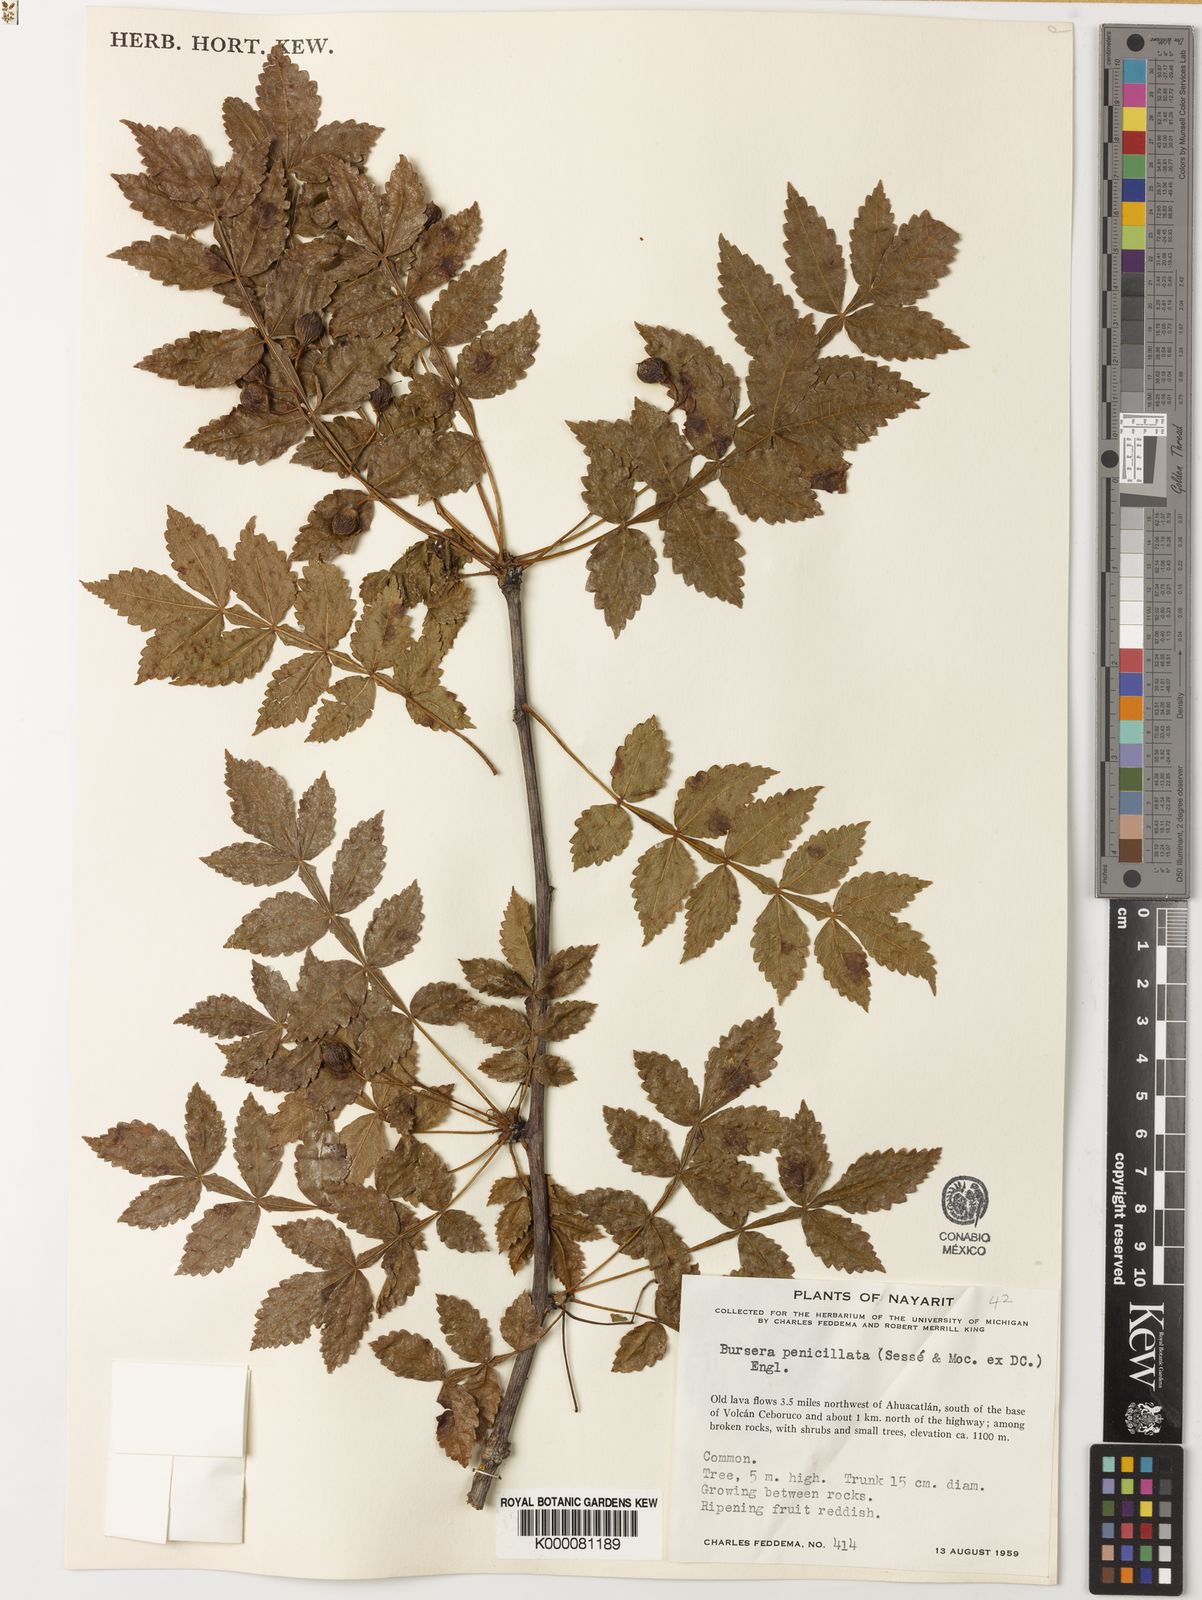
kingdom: Plantae
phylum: Tracheophyta
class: Magnoliopsida
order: Sapindales
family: Burseraceae
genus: Bursera
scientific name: Bursera penicillata
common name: Indian-lavender
